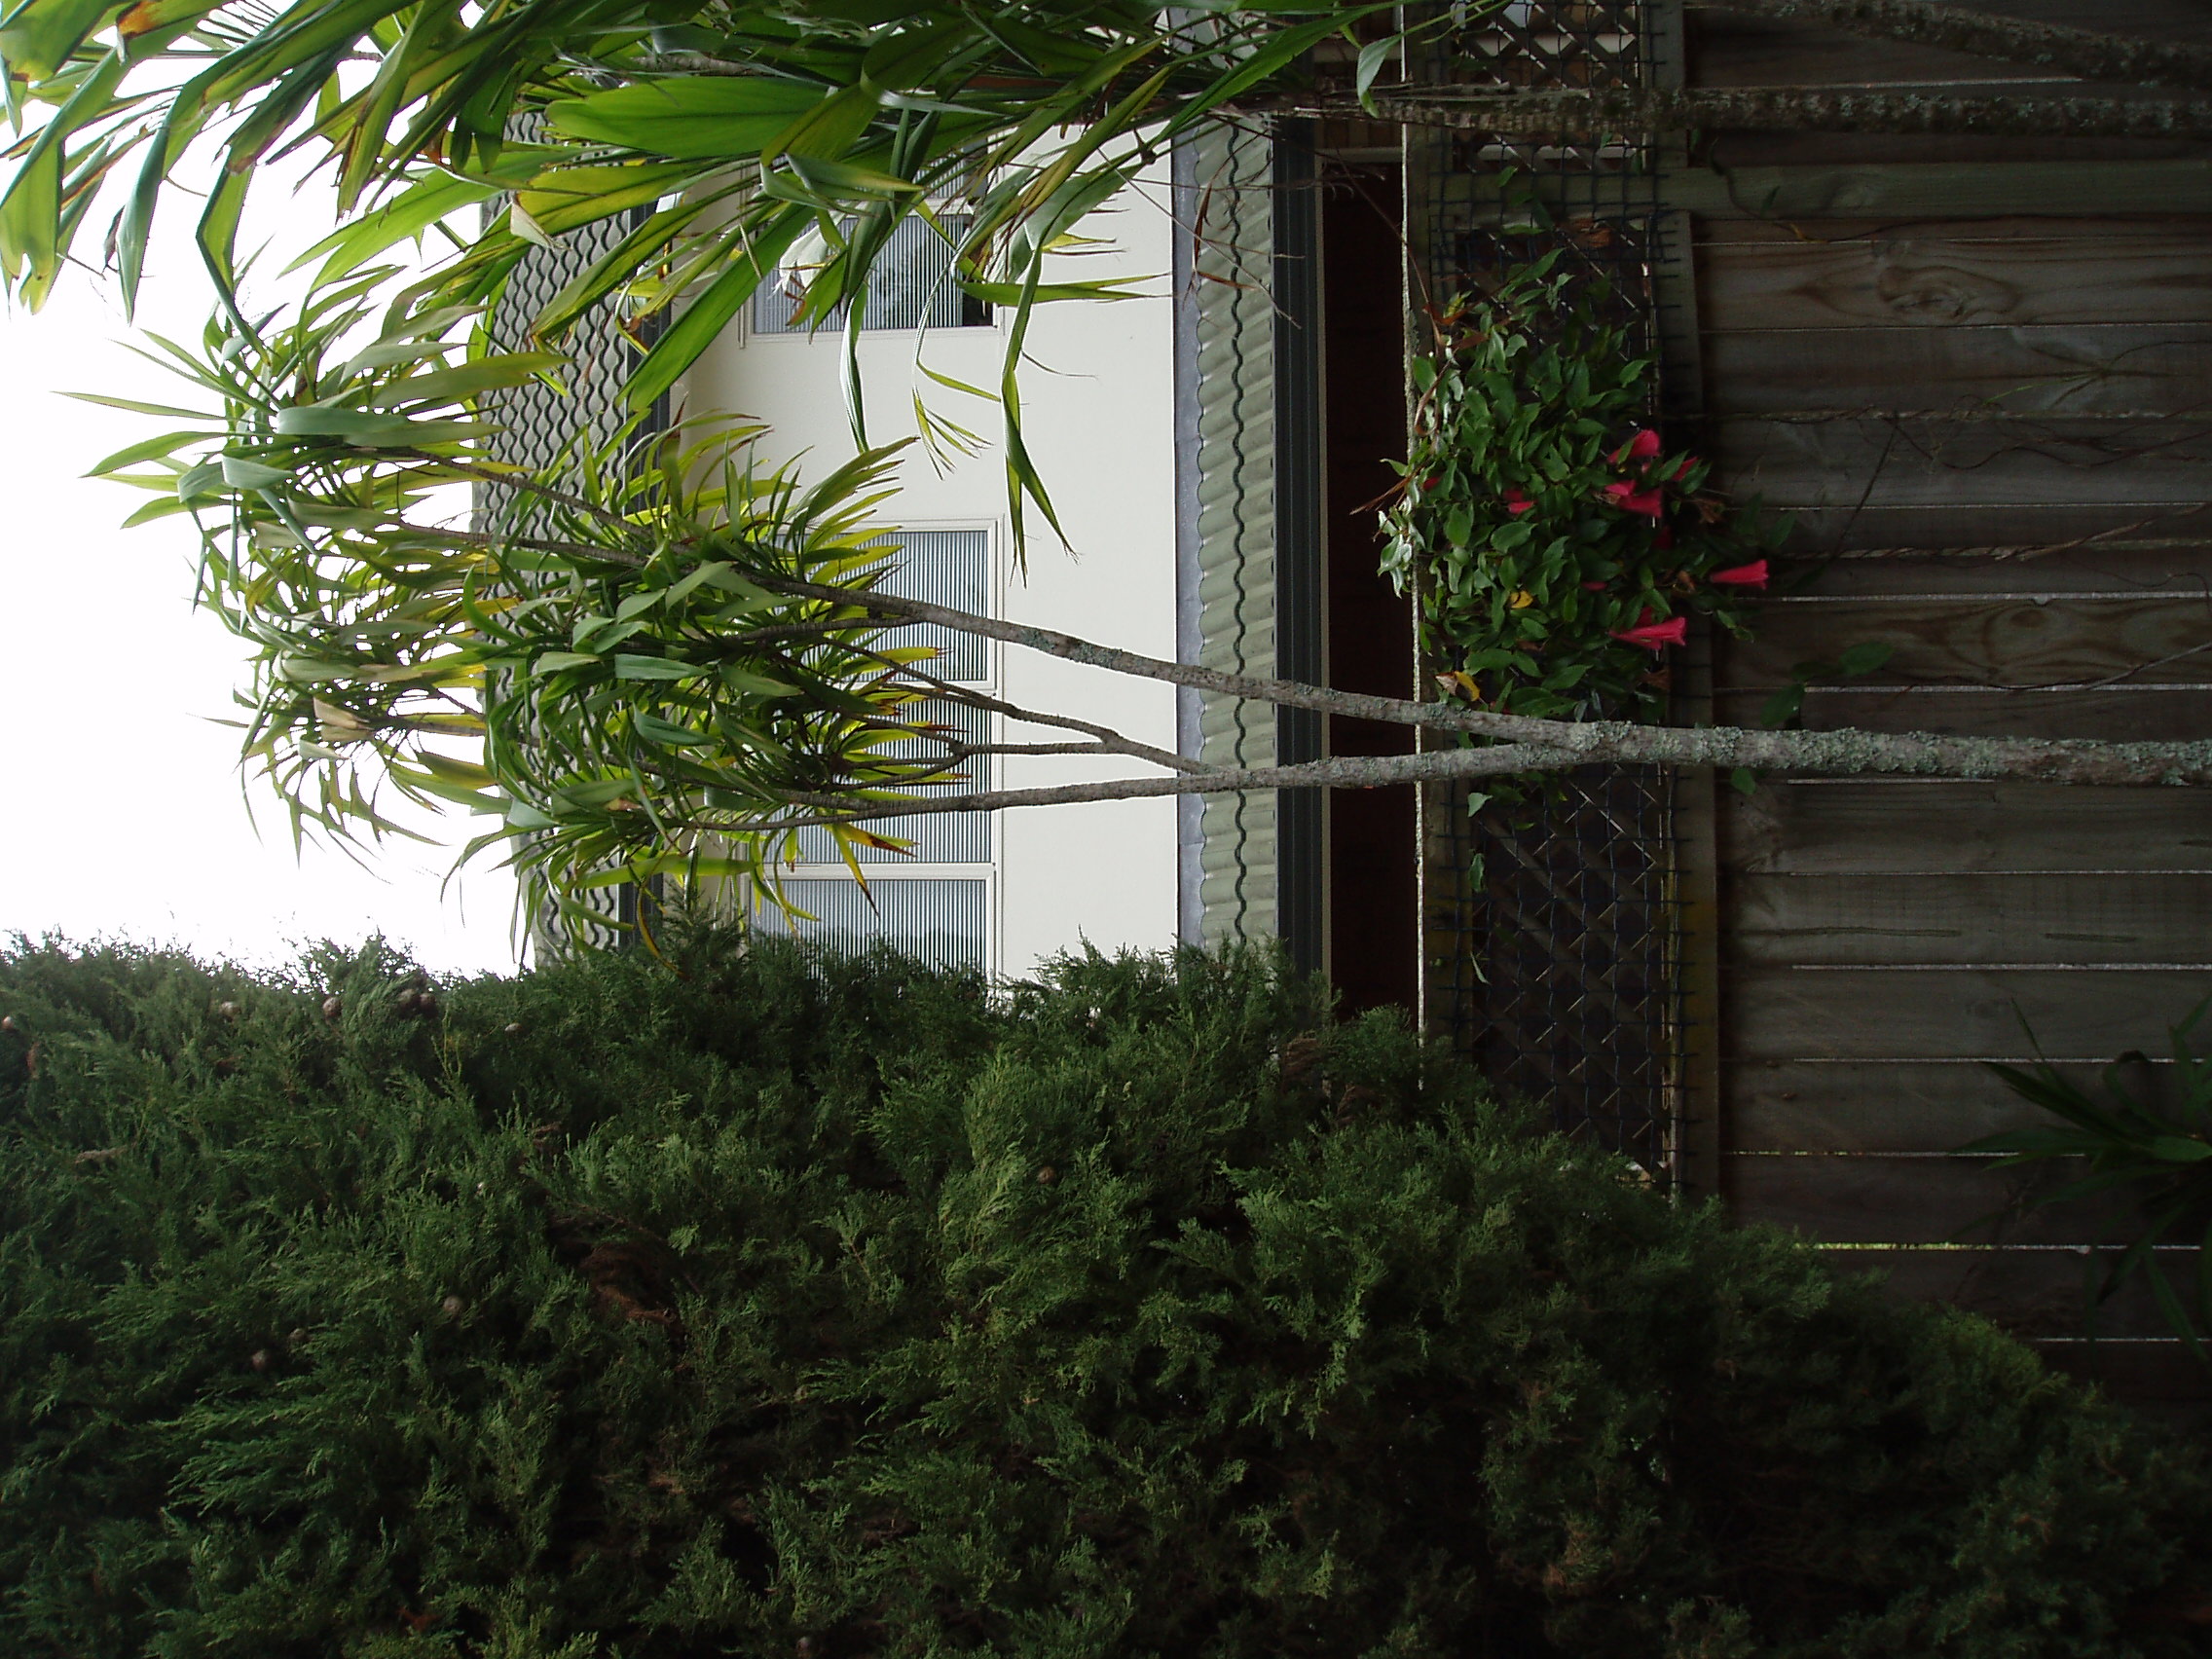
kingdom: Plantae
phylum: Tracheophyta
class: Liliopsida
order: Asparagales
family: Asparagaceae
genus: Cordyline
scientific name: Cordyline rubra
